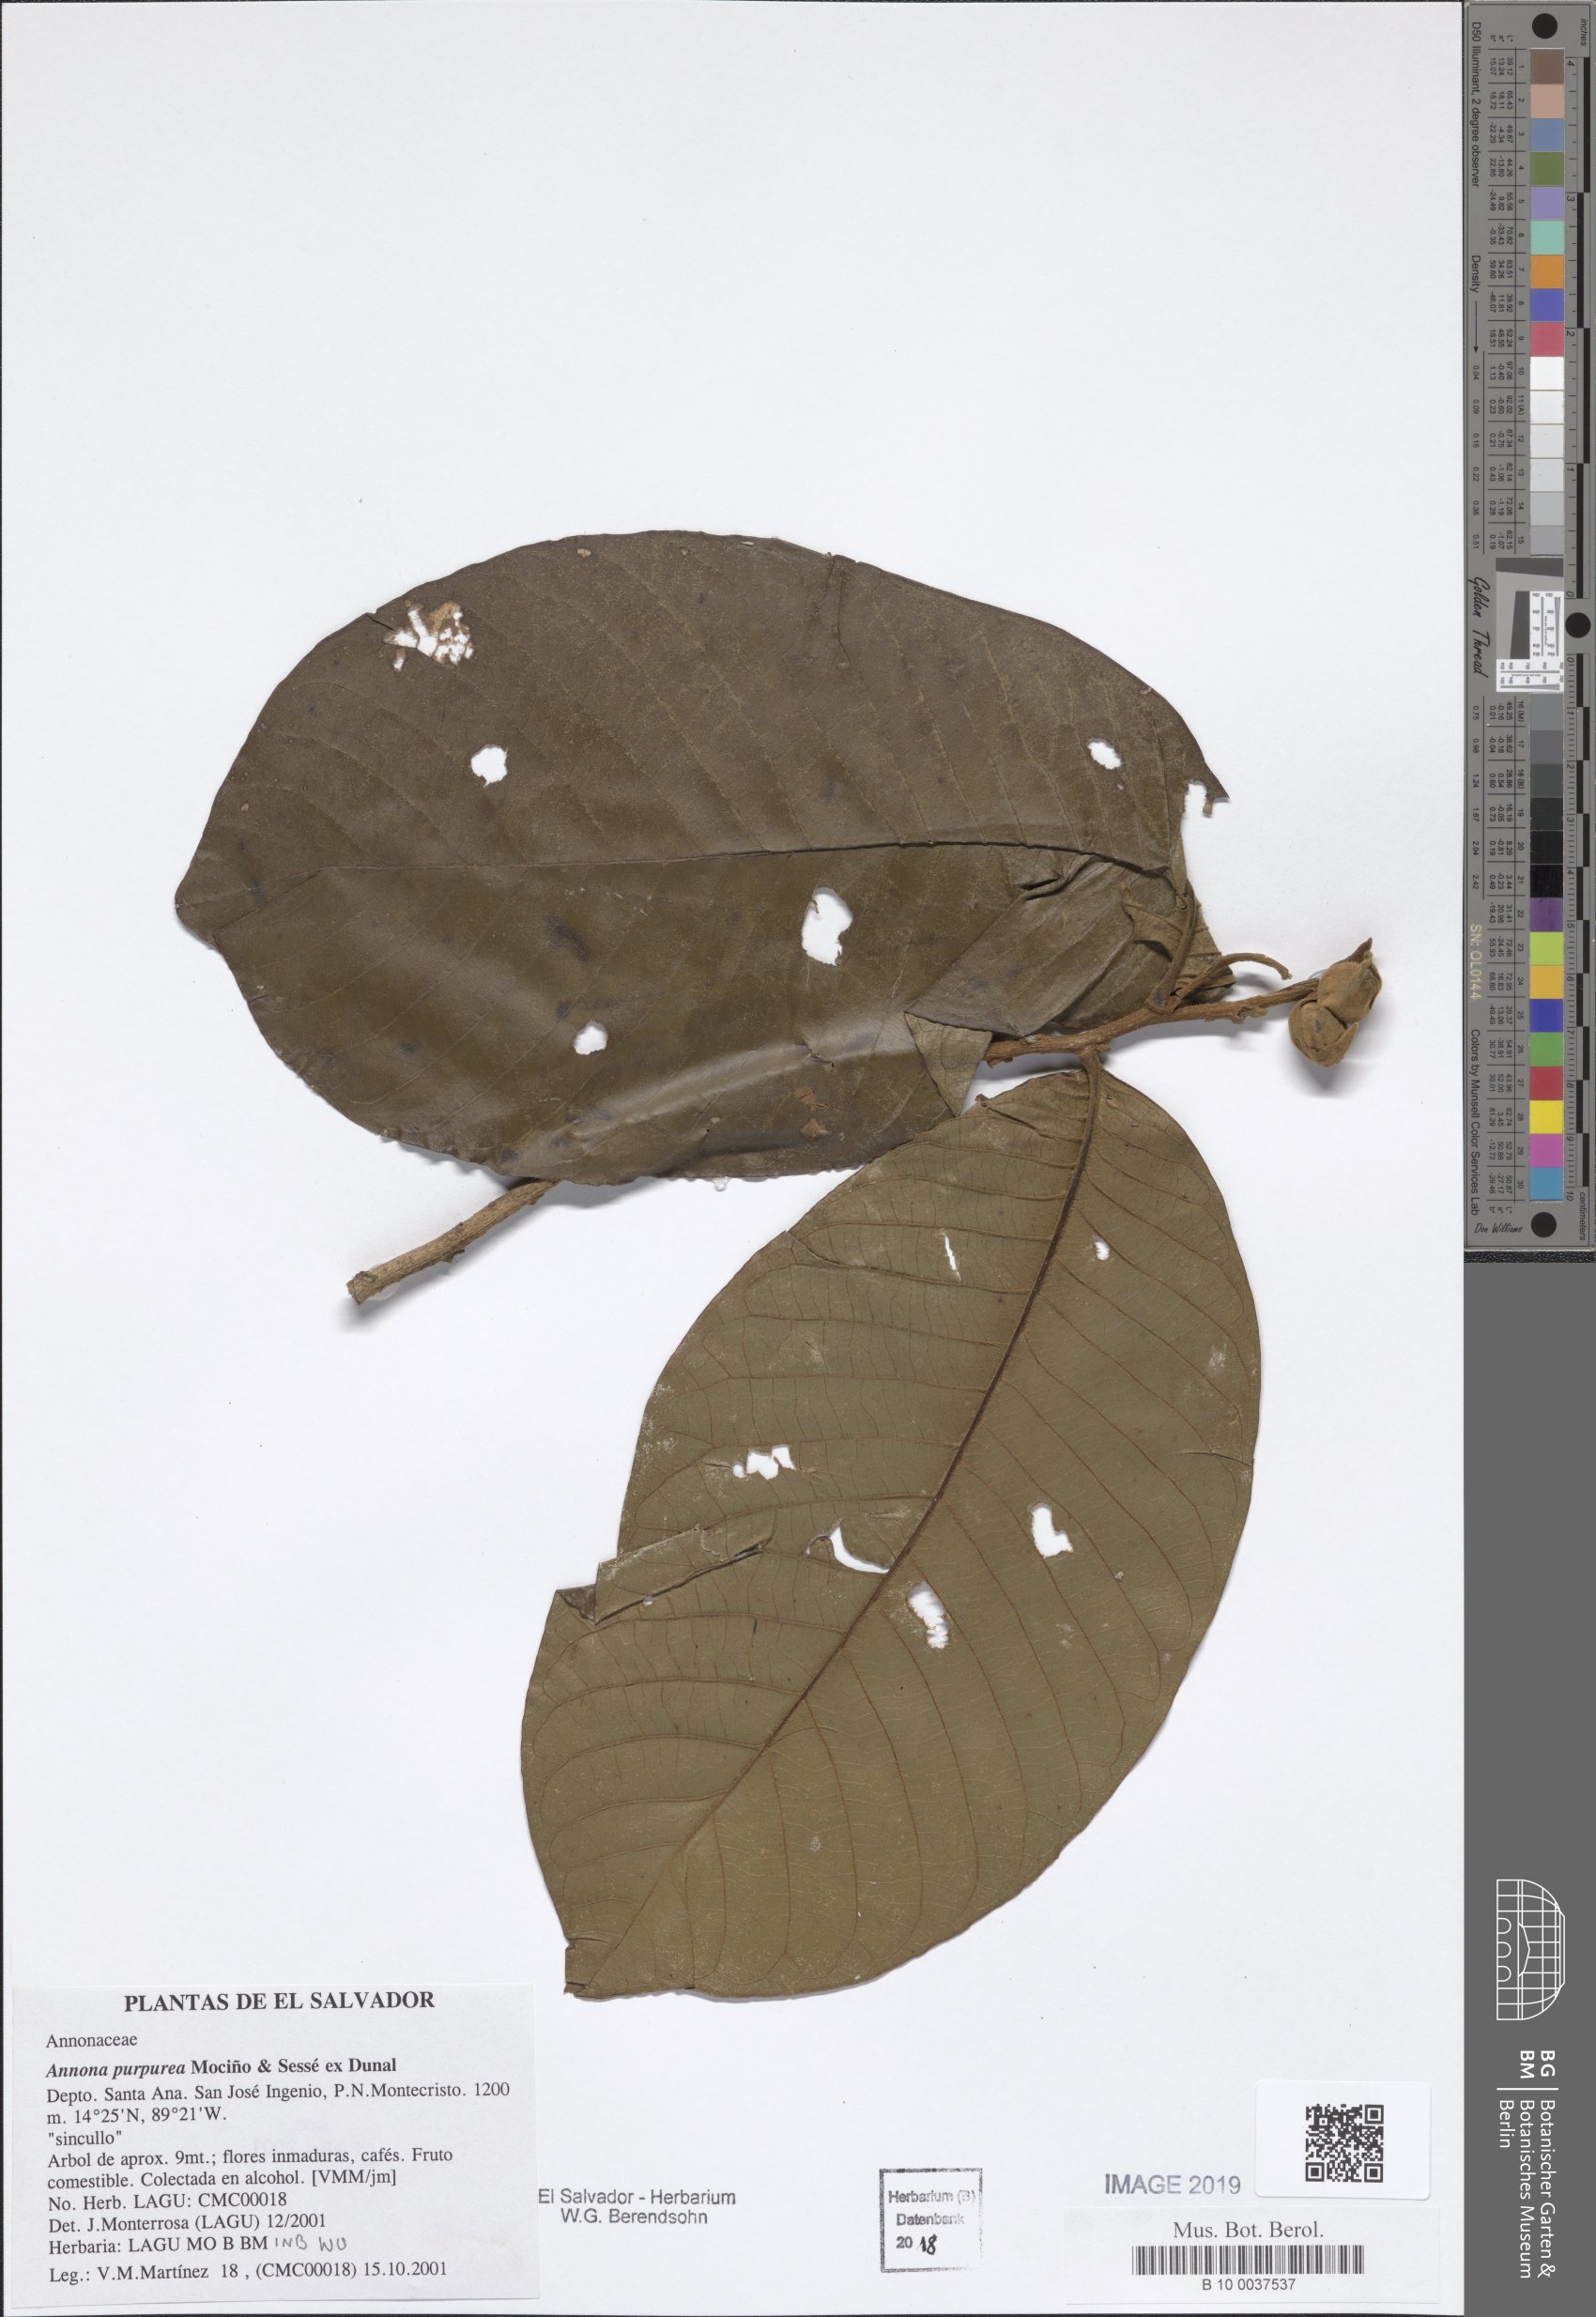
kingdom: Plantae
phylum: Tracheophyta
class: Magnoliopsida
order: Magnoliales
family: Annonaceae
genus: Annona
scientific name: Annona purpurea
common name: Negrohead
